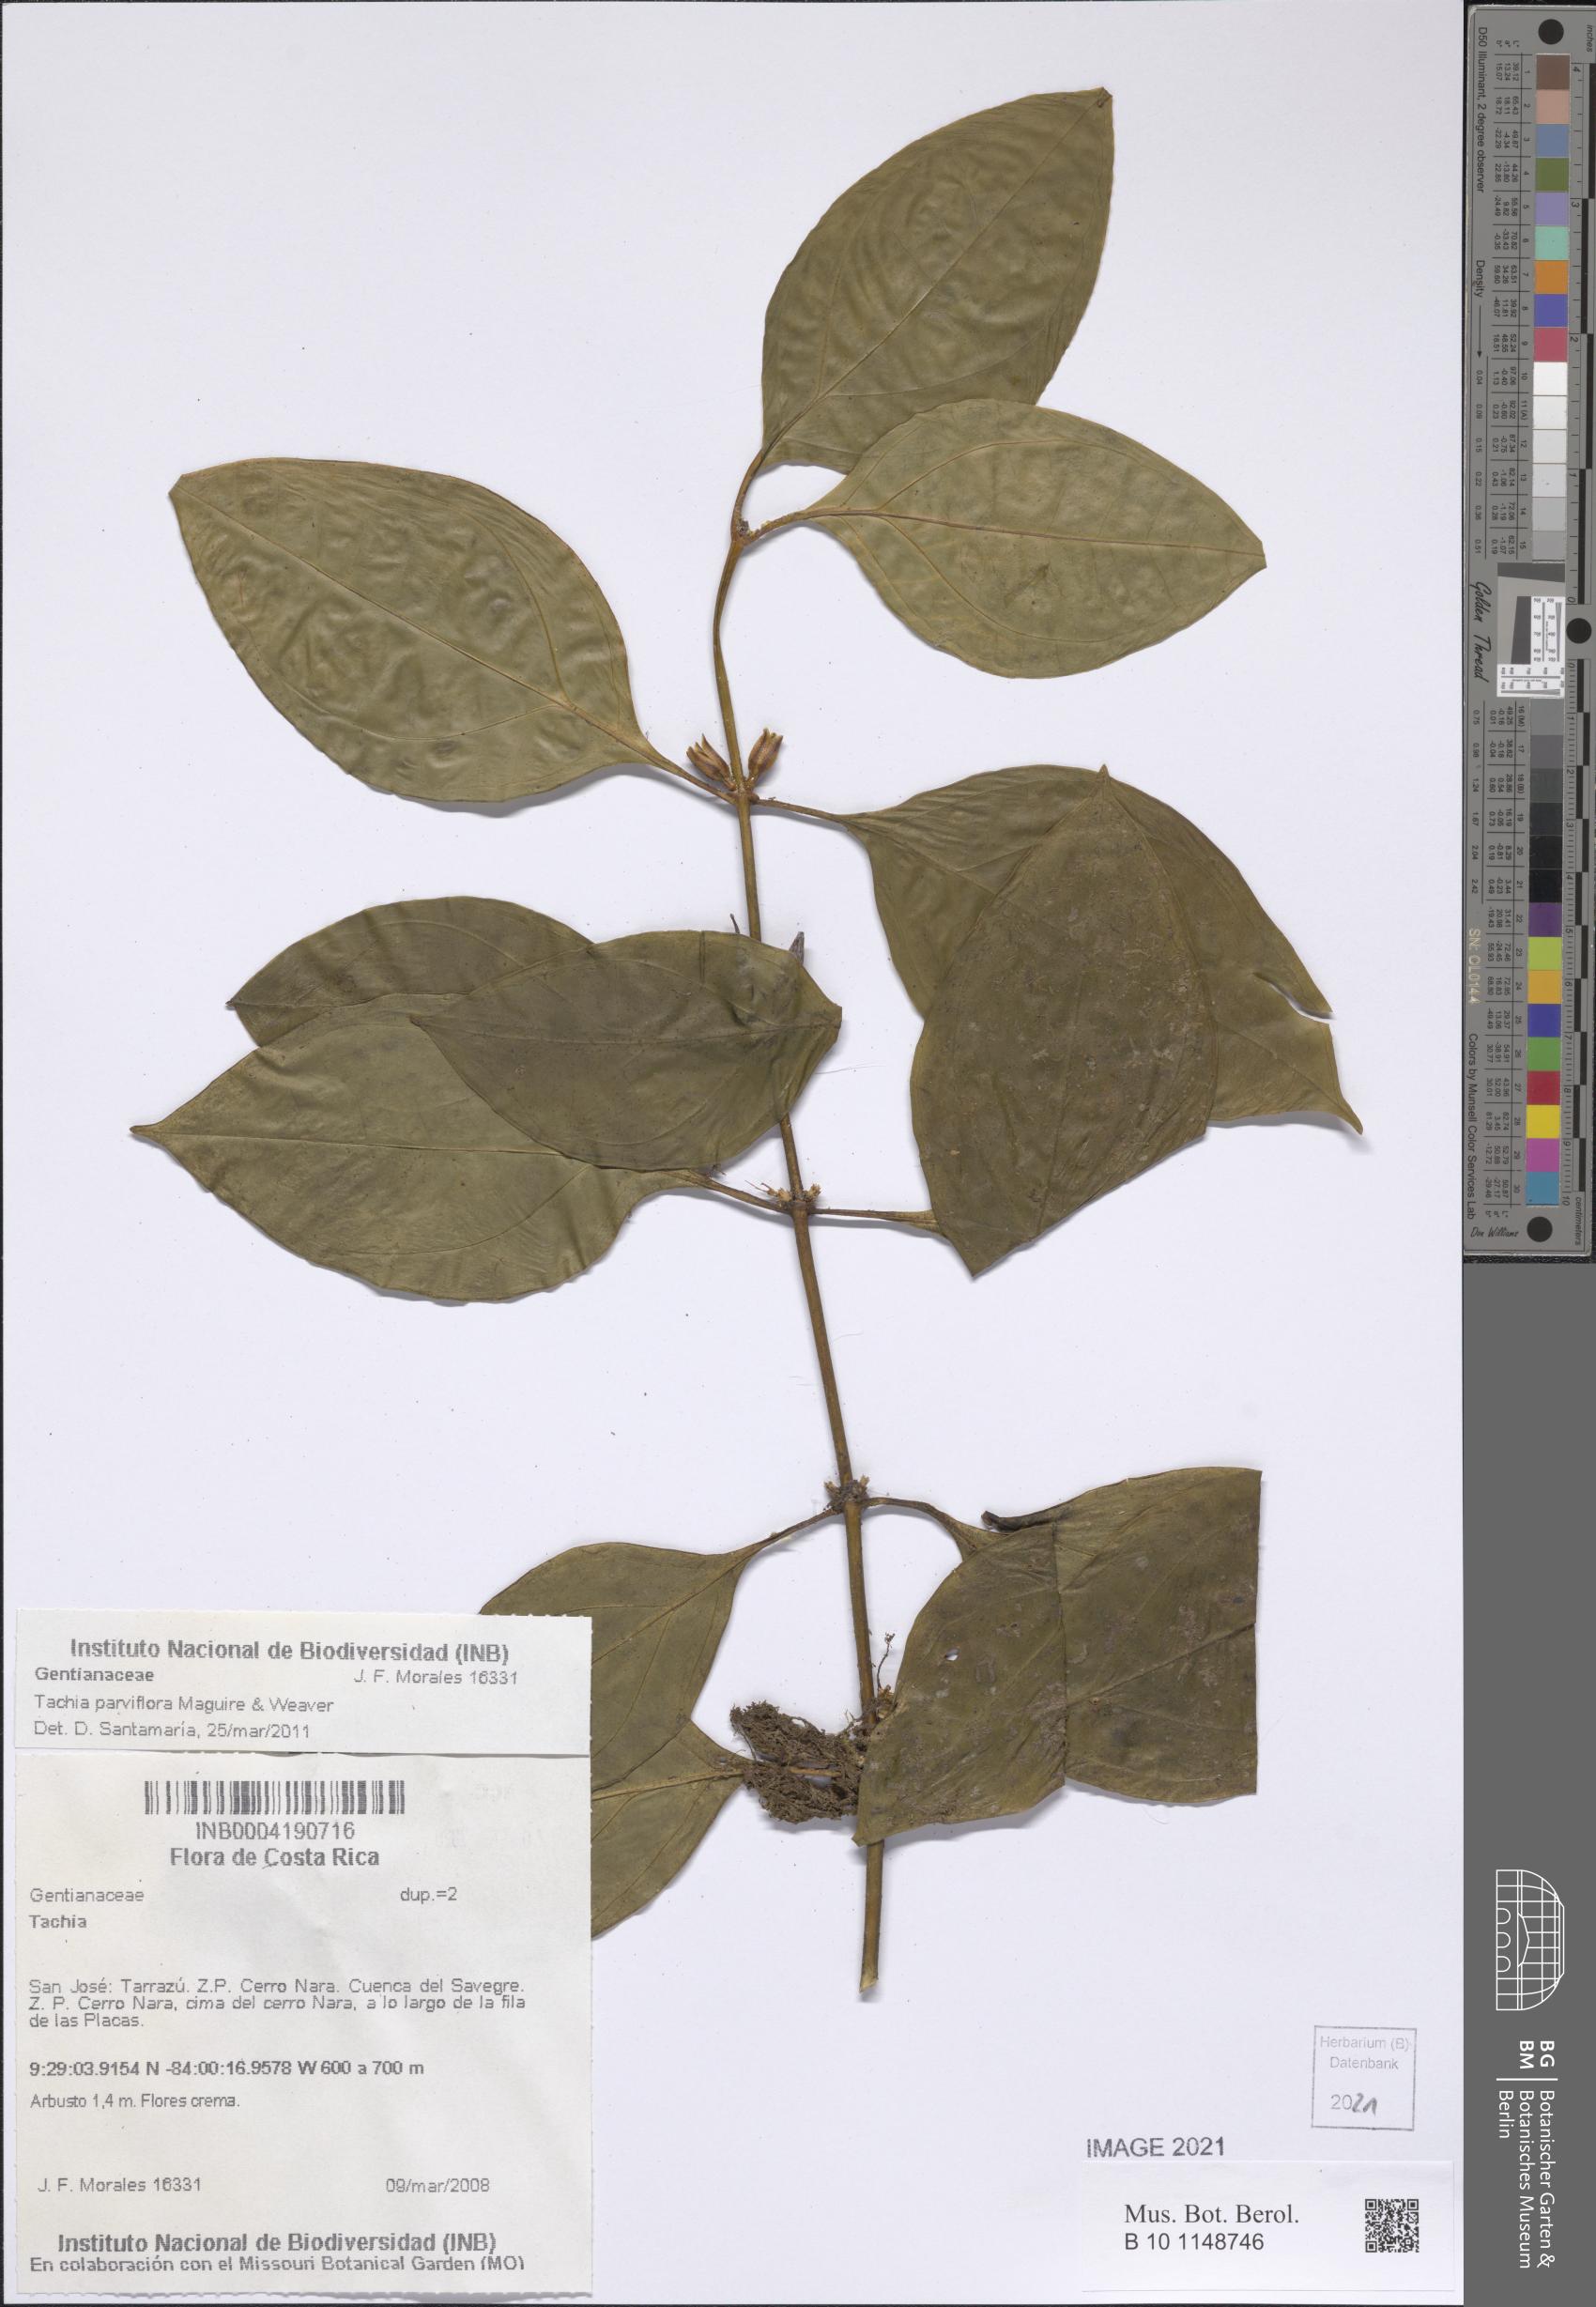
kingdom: Plantae
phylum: Tracheophyta
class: Magnoliopsida
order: Gentianales
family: Gentianaceae
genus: Tachia
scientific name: Tachia
